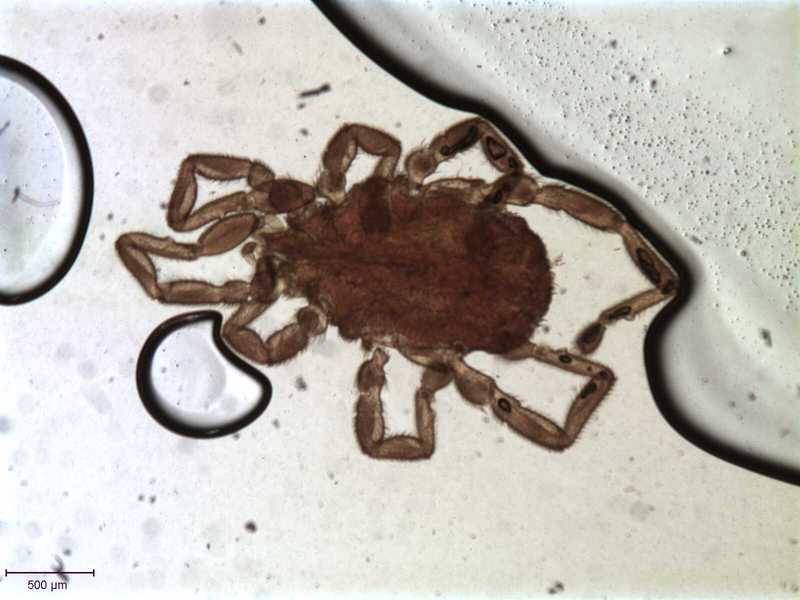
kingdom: Animalia
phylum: Arthropoda
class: Arachnida
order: Trombidiformes
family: Erythraeidae
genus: Caeculisoma
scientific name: Caeculisoma cordipes
